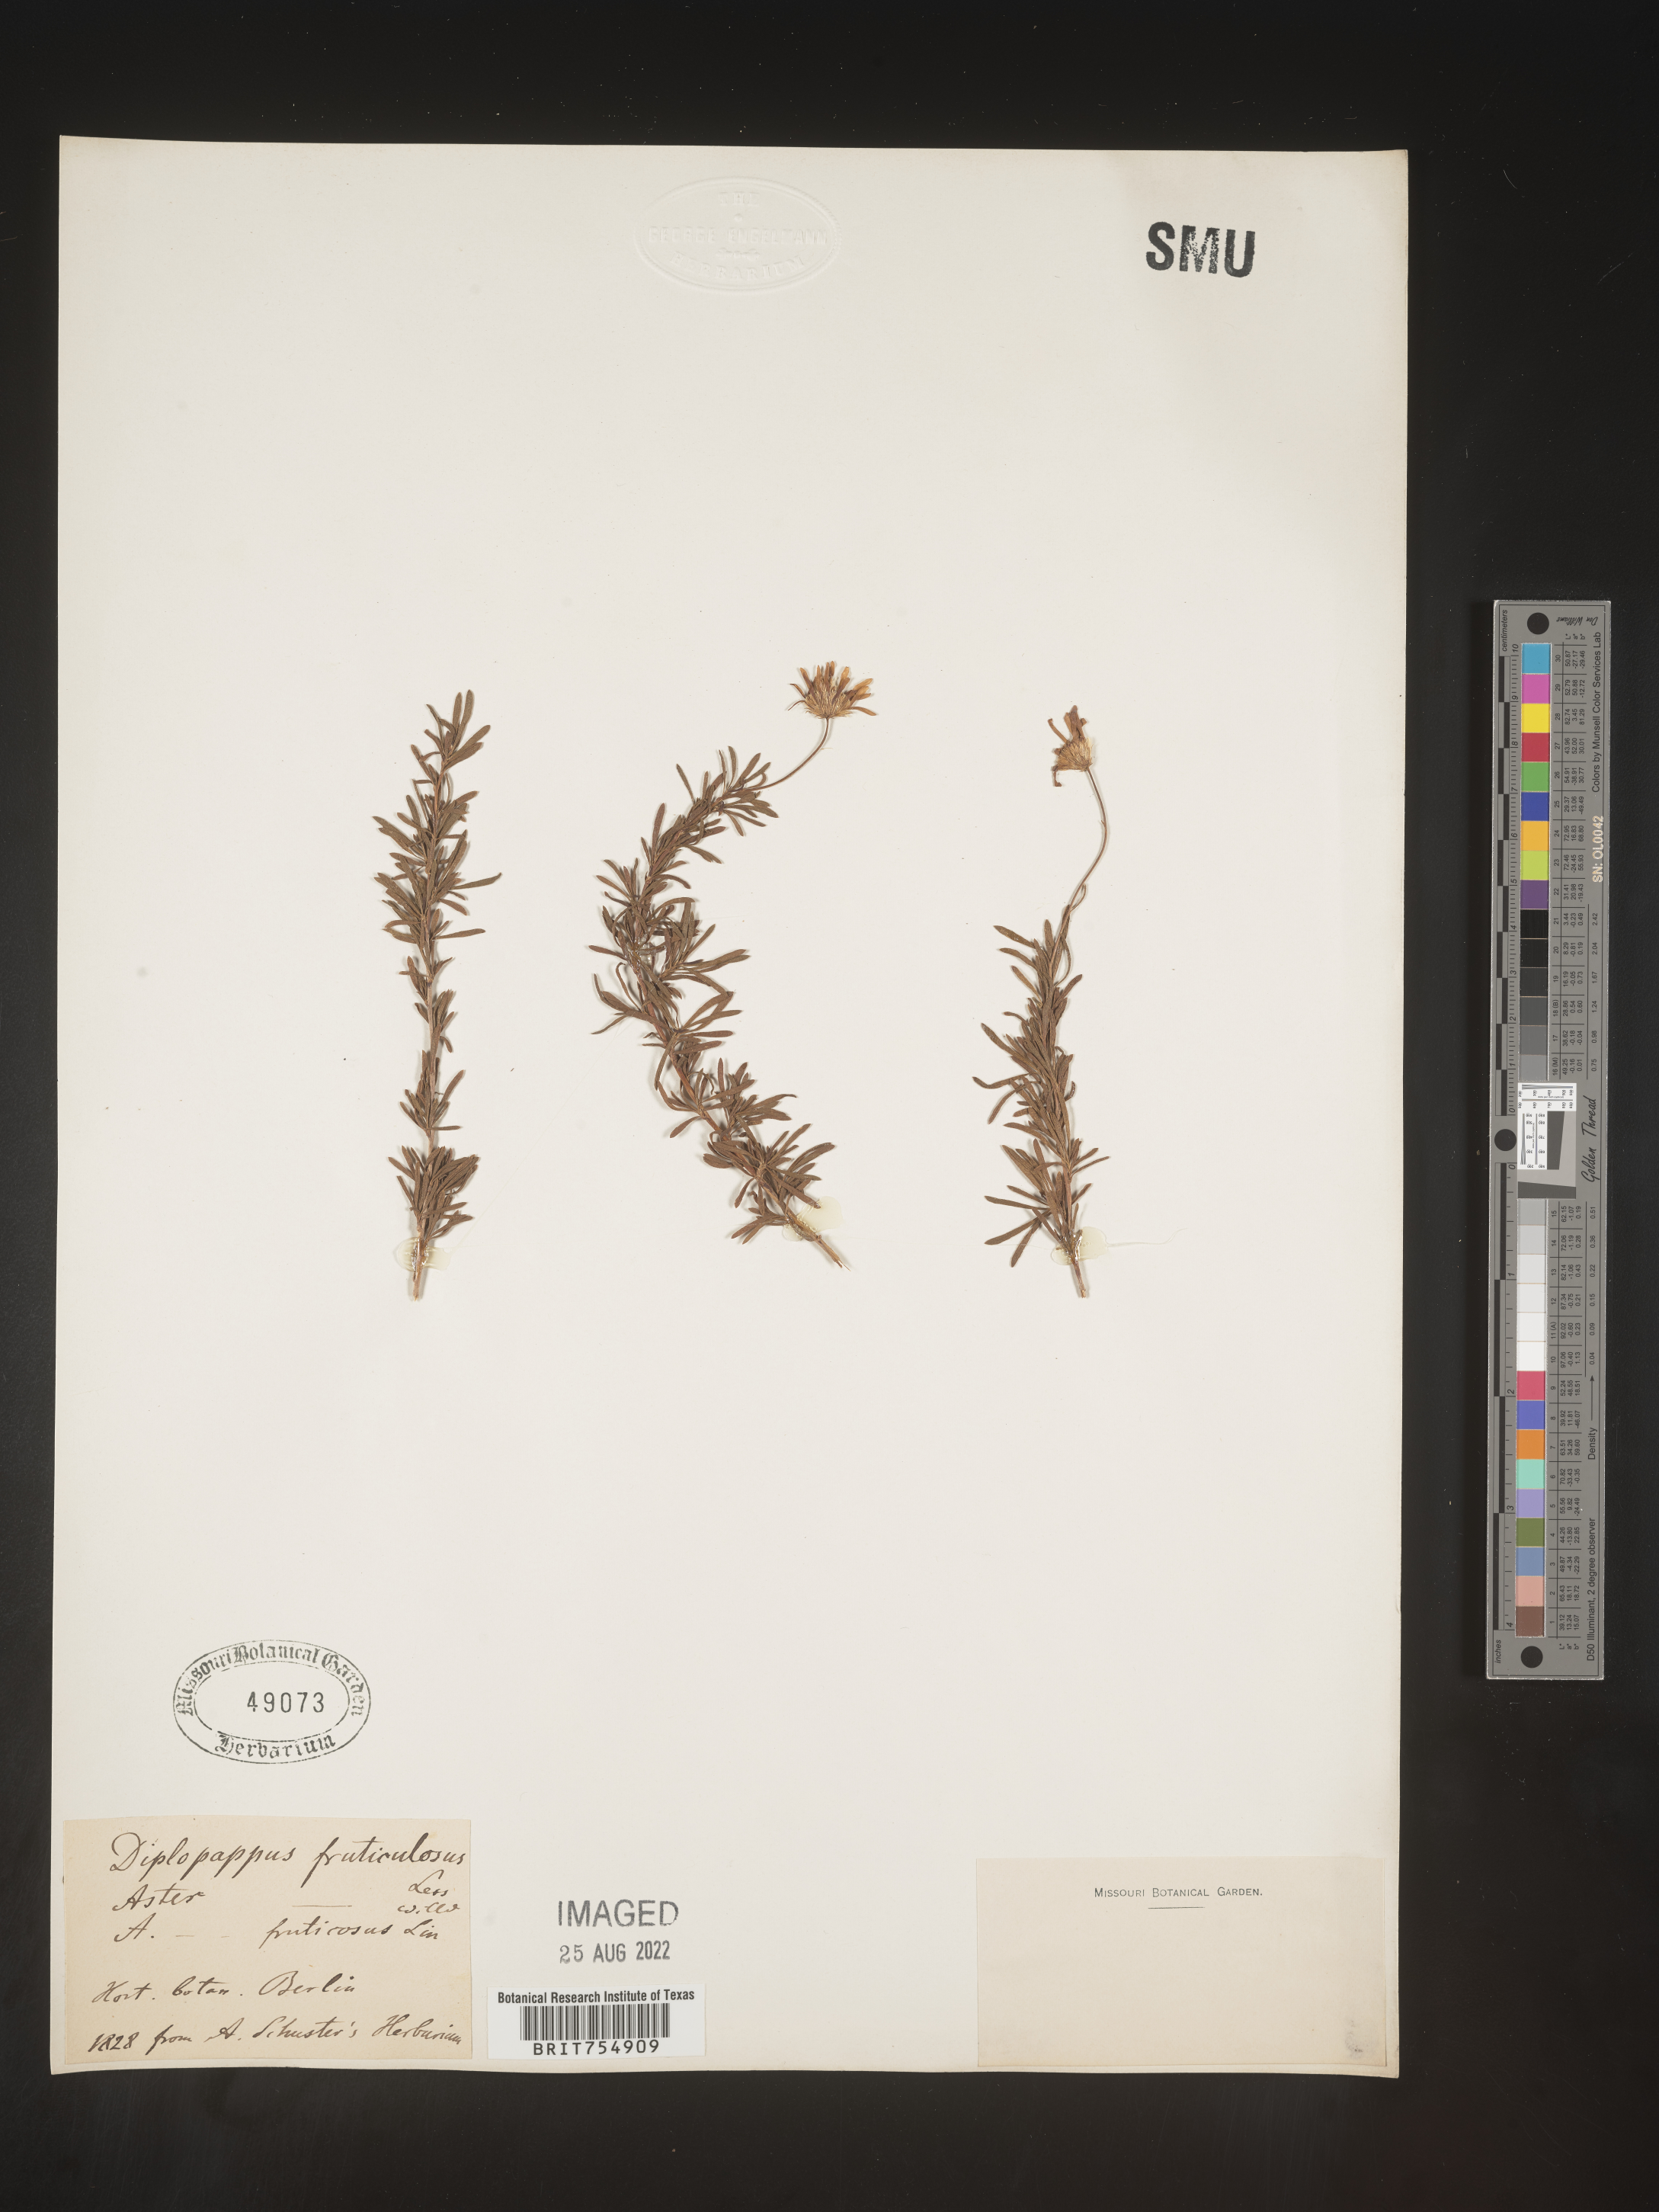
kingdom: Plantae
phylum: Tracheophyta
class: Magnoliopsida
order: Asterales
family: Asteraceae
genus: Symphyotrichum
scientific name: Symphyotrichum
